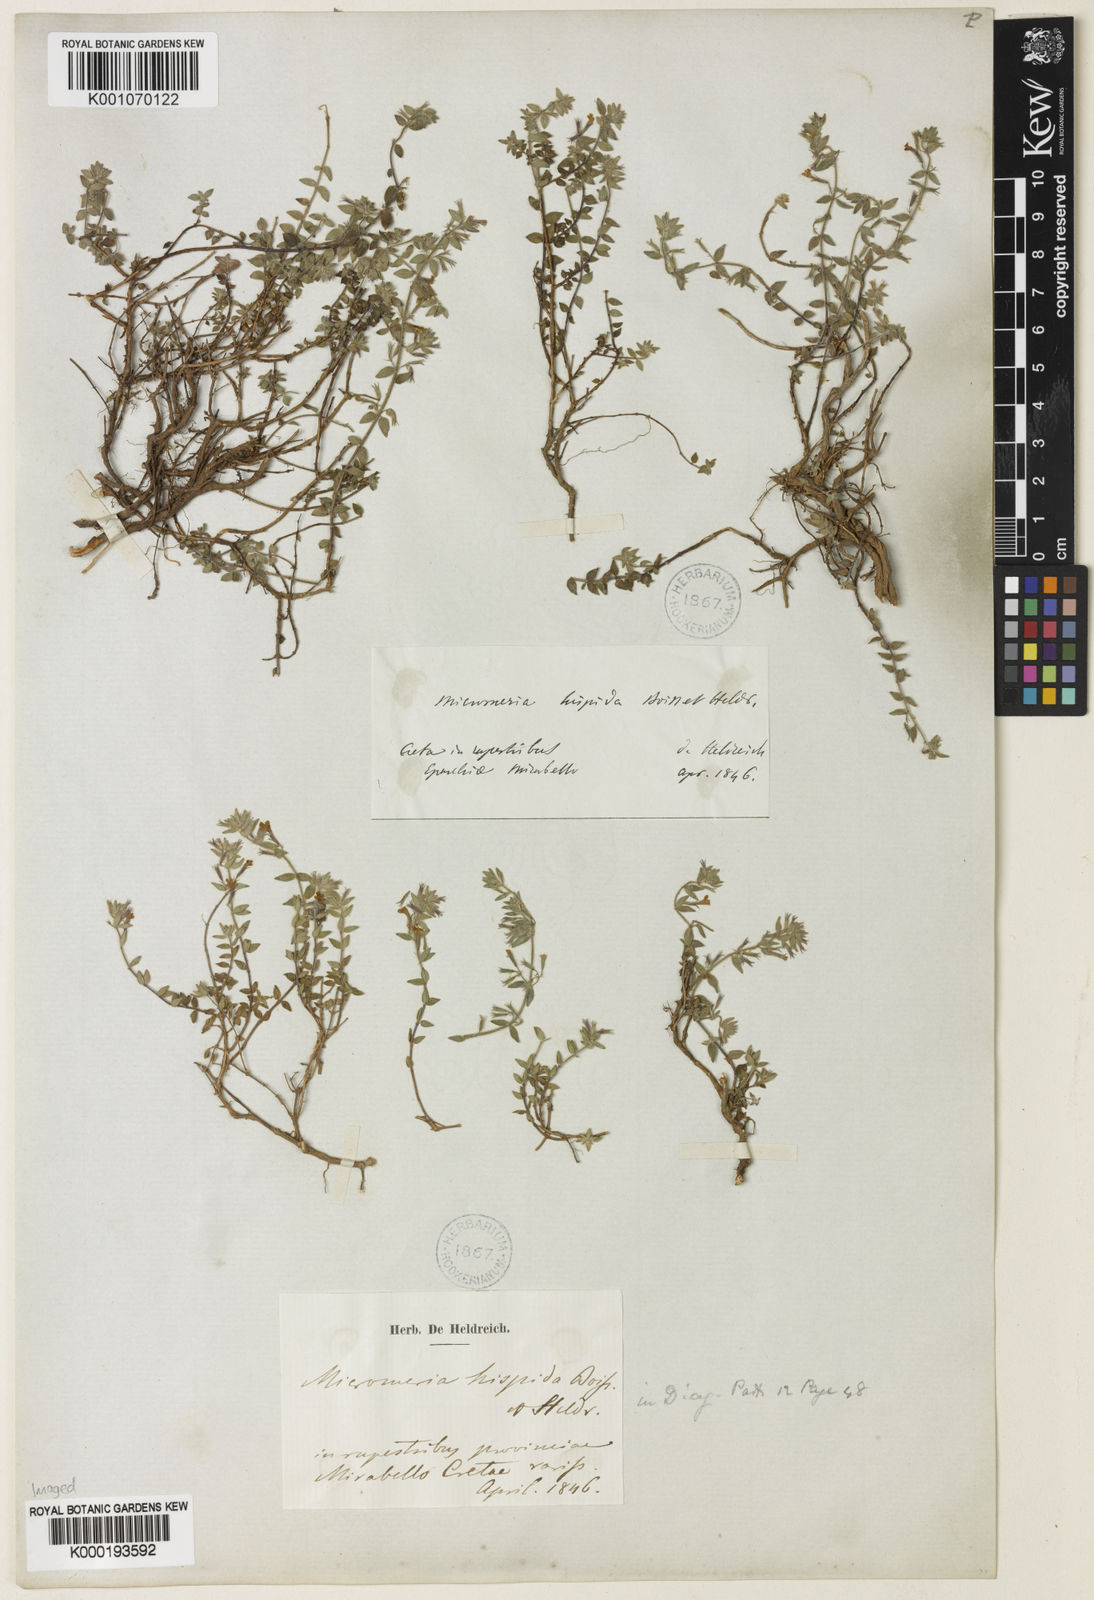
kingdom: Plantae
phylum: Tracheophyta
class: Magnoliopsida
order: Lamiales
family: Lamiaceae
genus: Micromeria
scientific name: Micromeria hispida
